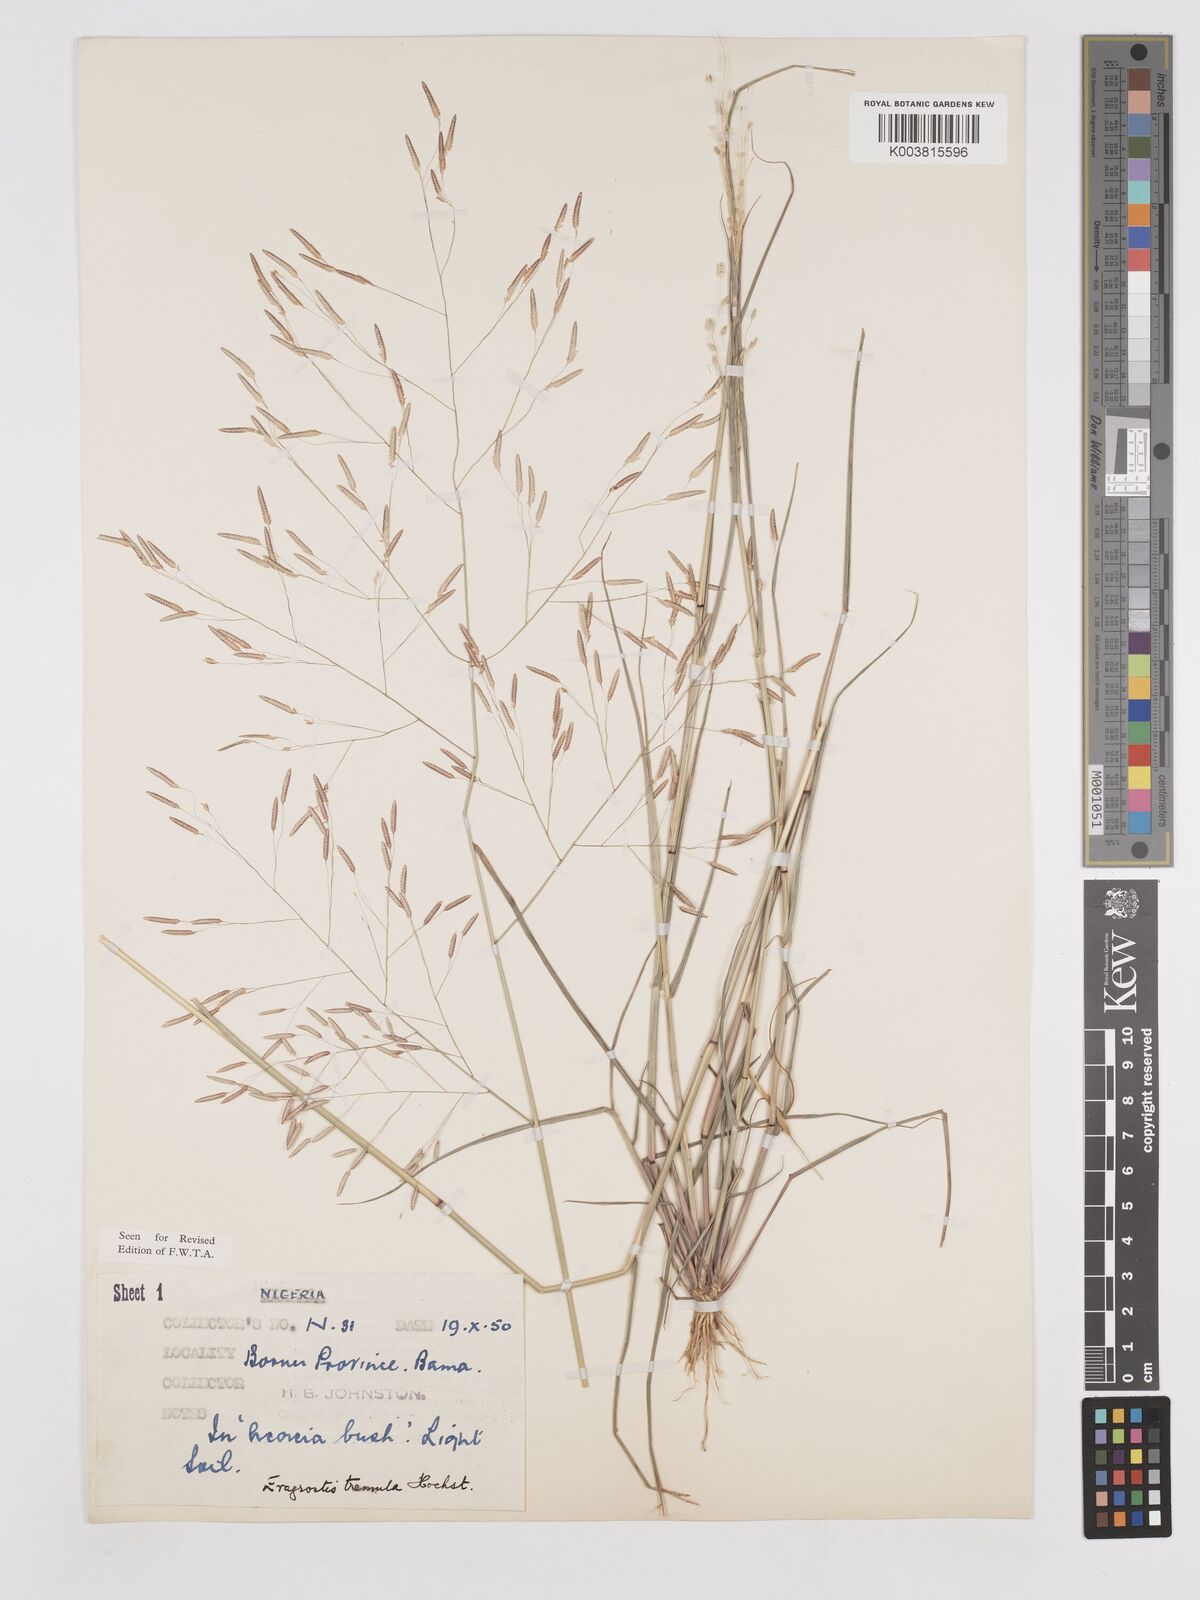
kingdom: Plantae
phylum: Tracheophyta
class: Liliopsida
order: Poales
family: Poaceae
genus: Eragrostis
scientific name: Eragrostis tremula
